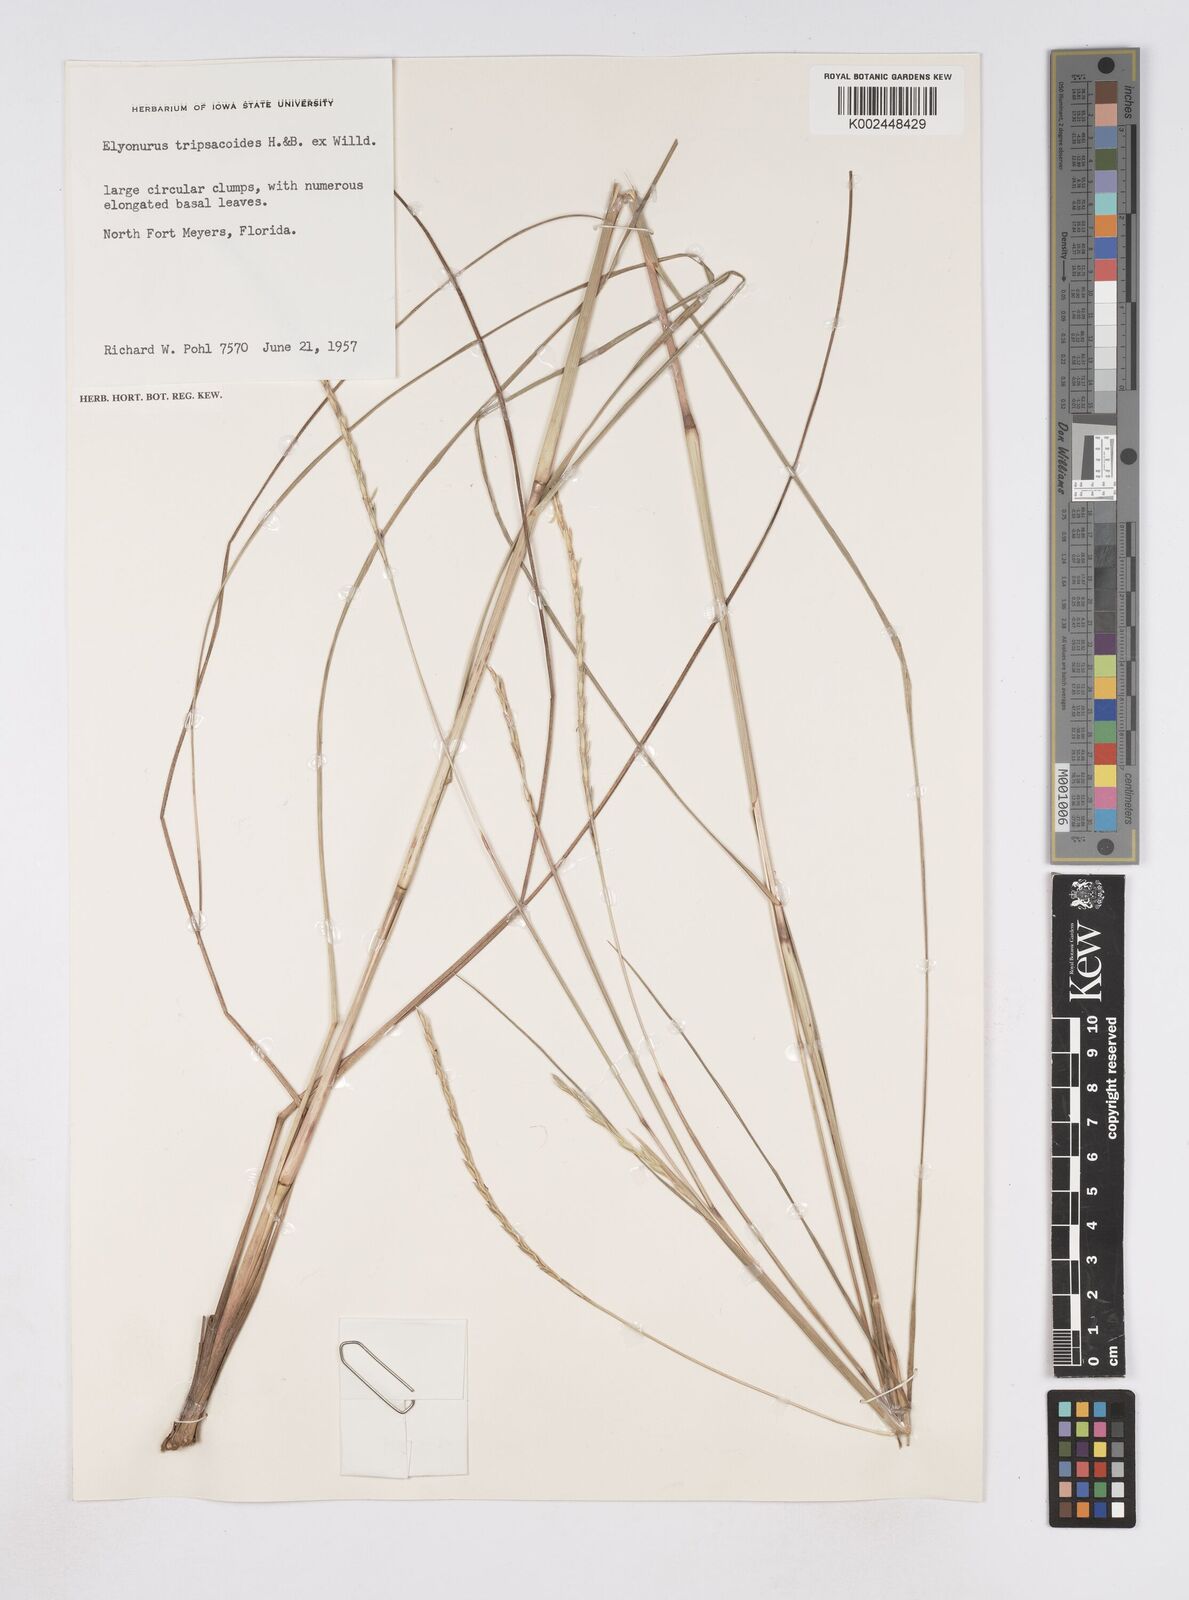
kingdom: Plantae
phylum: Tracheophyta
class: Liliopsida
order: Poales
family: Poaceae
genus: Elionurus
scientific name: Elionurus tripsacoides
